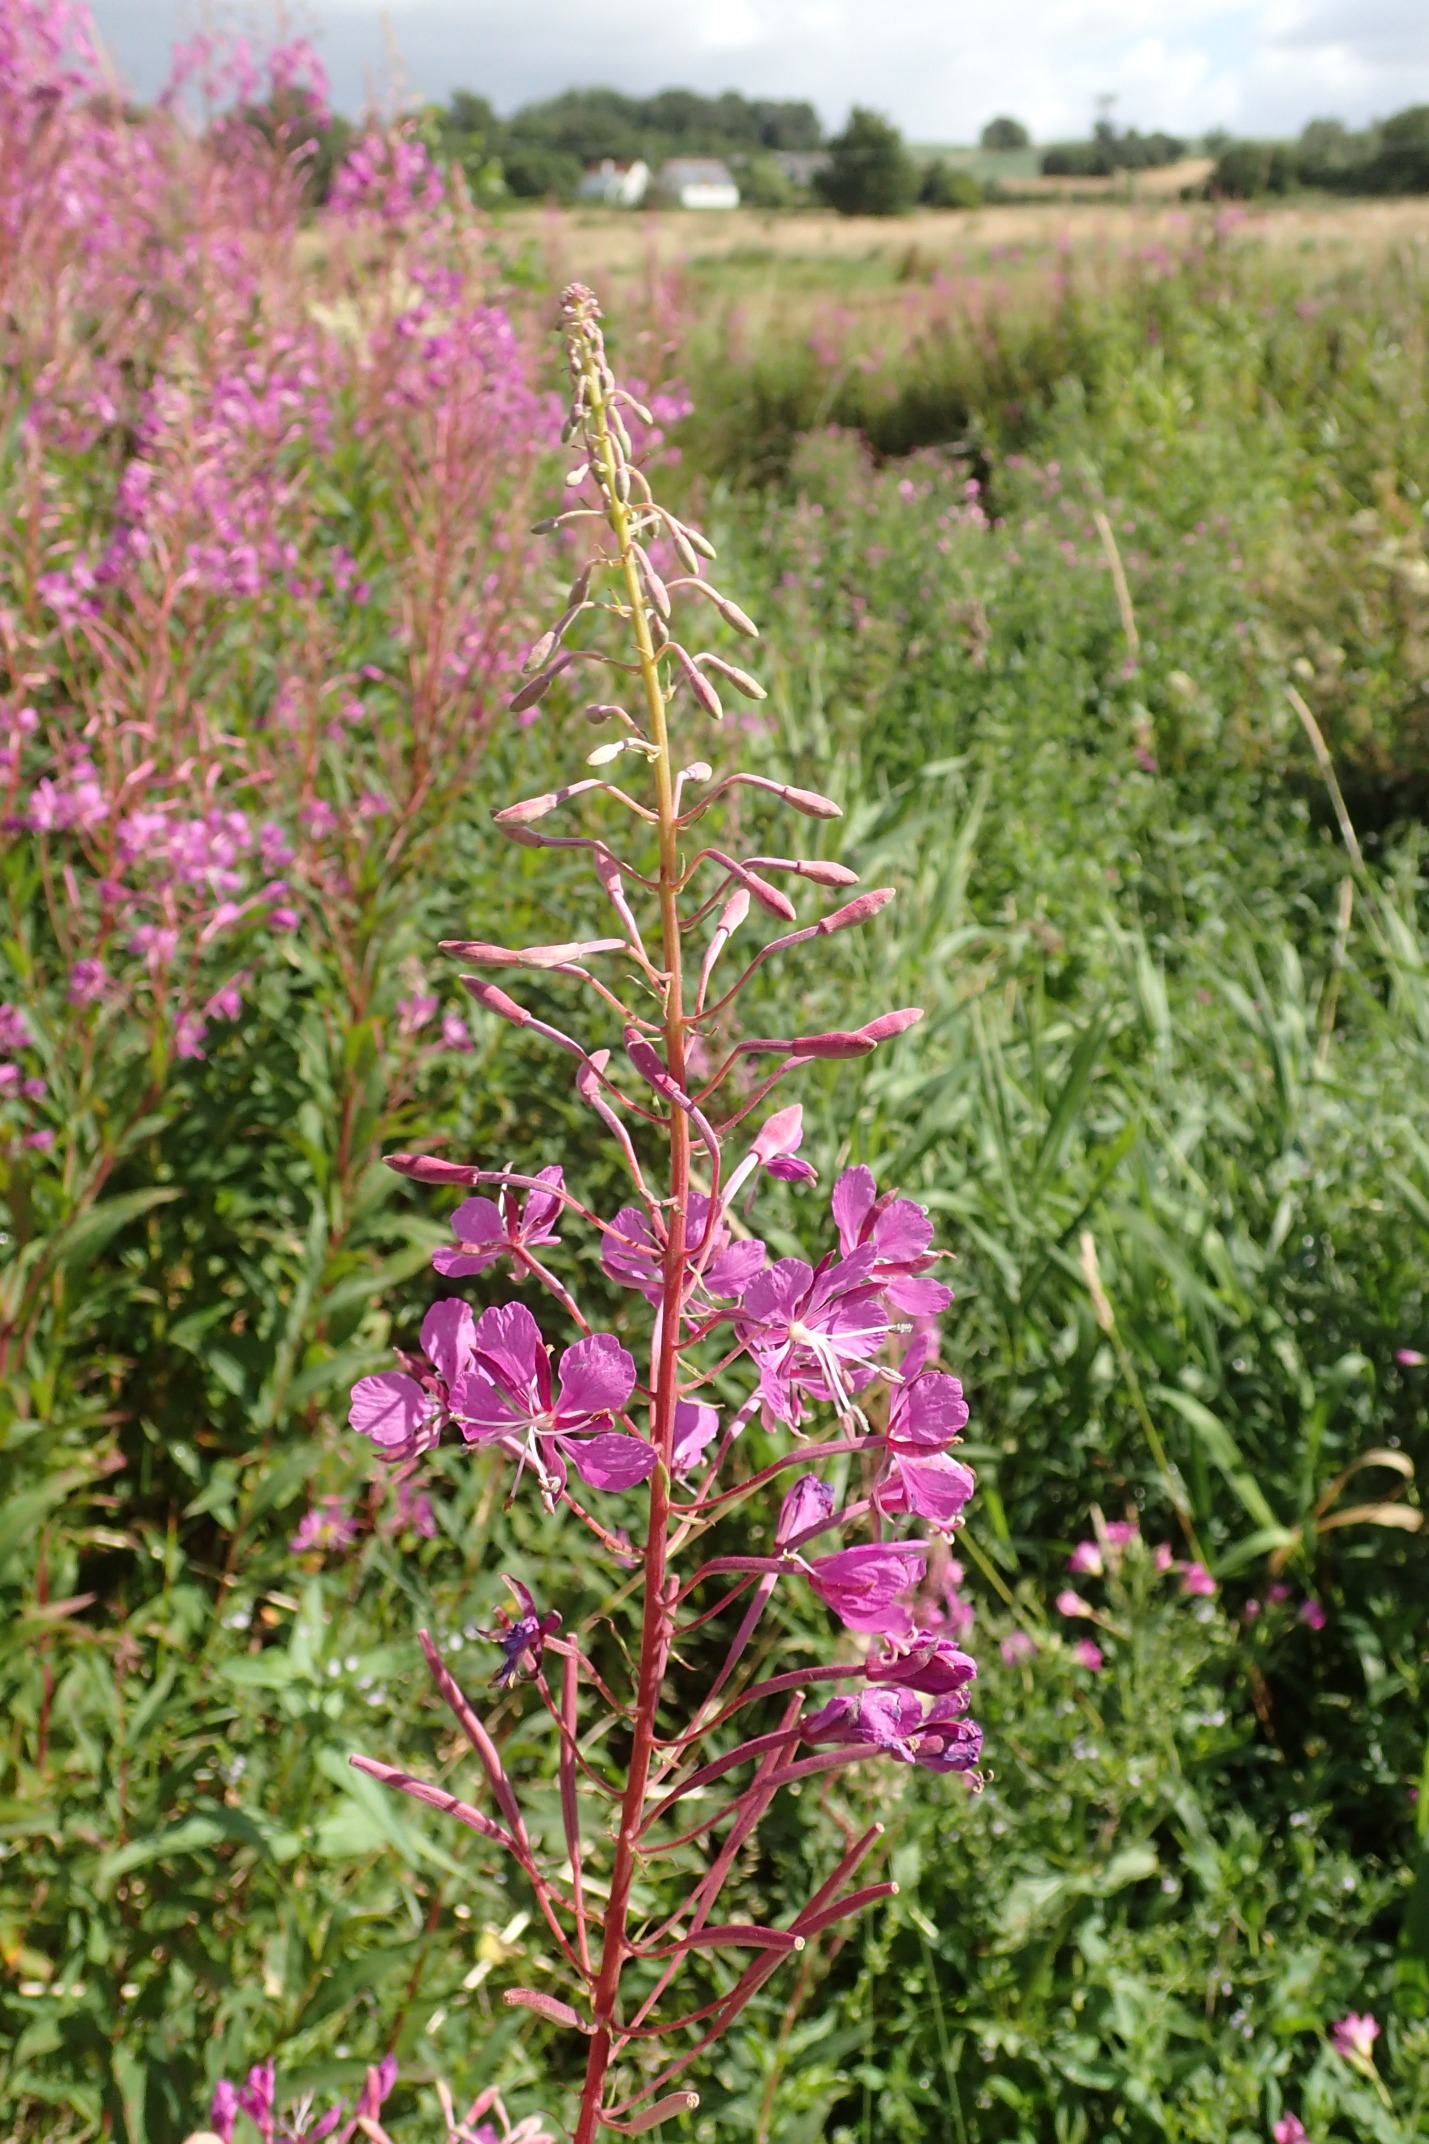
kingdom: Plantae
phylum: Tracheophyta
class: Magnoliopsida
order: Myrtales
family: Onagraceae
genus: Chamaenerion
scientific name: Chamaenerion angustifolium
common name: Gederams
